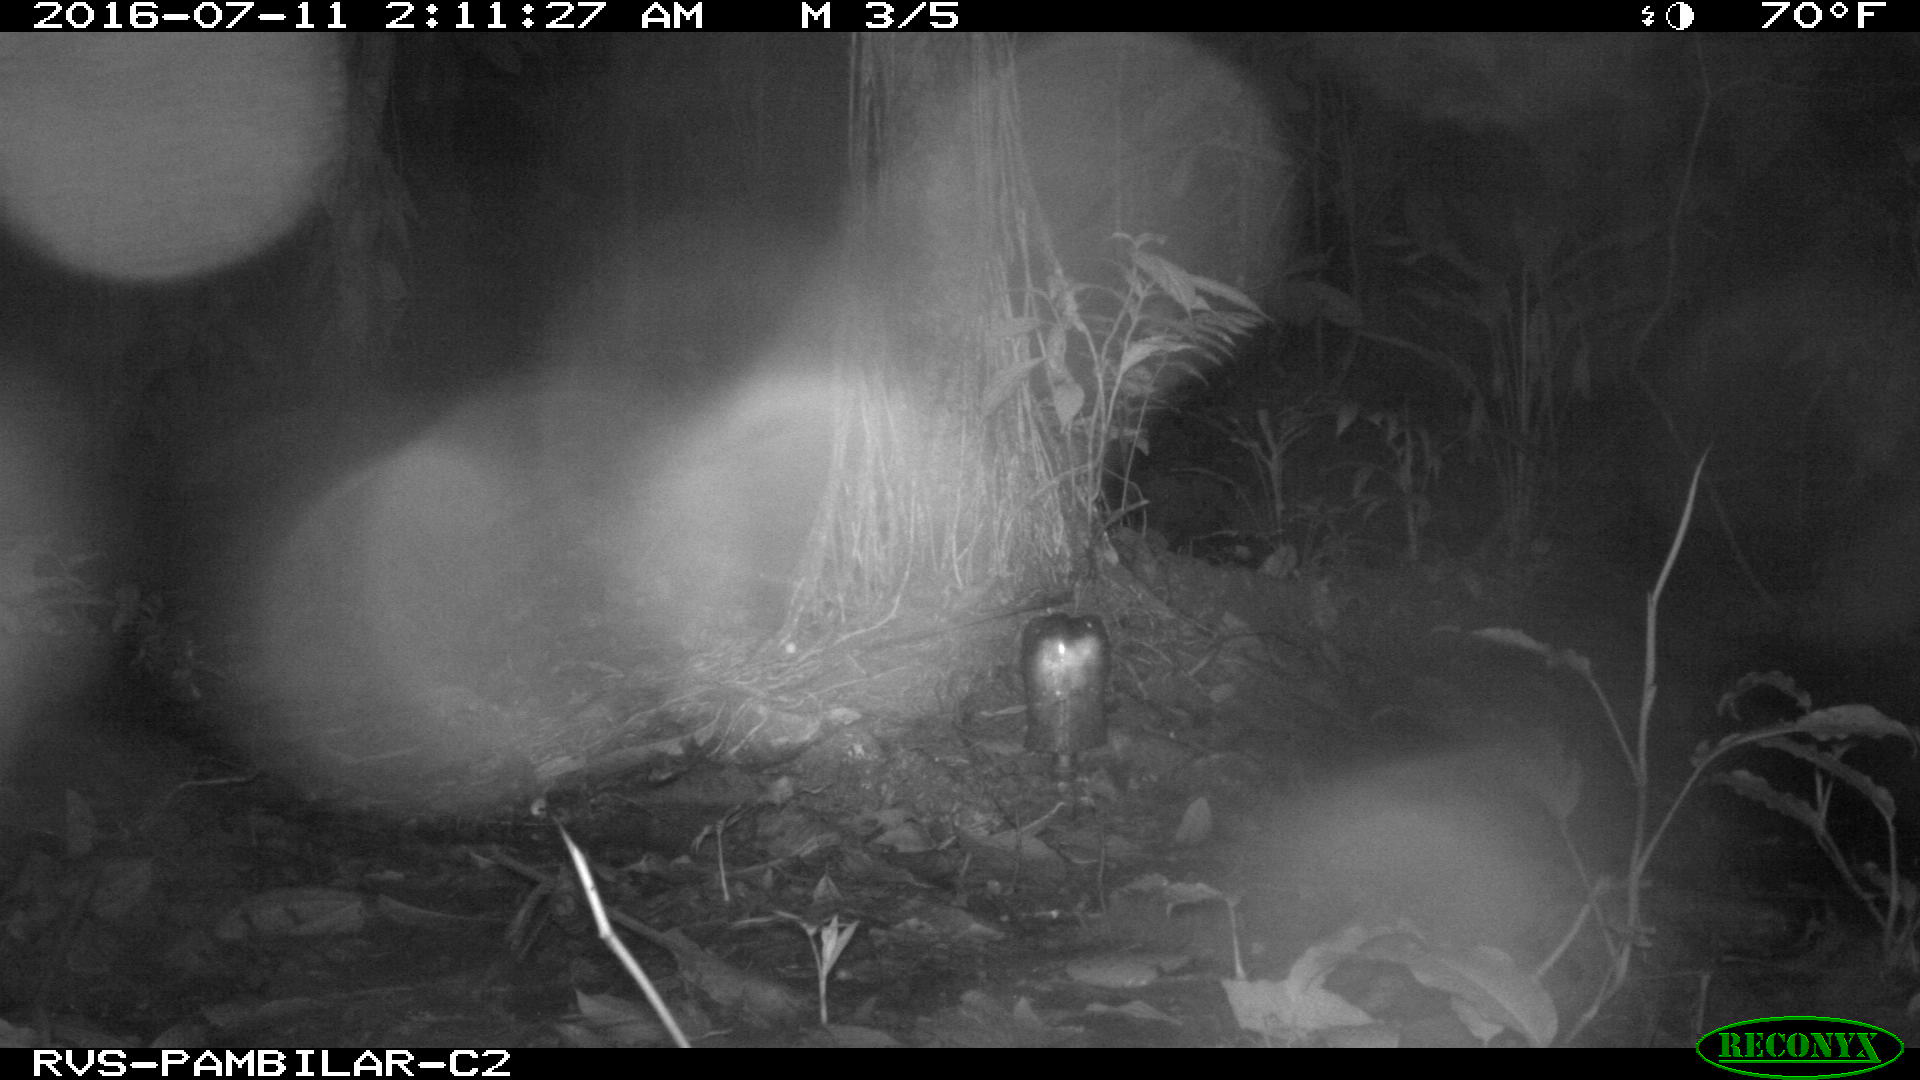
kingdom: Animalia
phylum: Chordata
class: Mammalia
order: Rodentia
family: Cuniculidae
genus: Cuniculus
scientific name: Cuniculus paca
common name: Lowland paca
